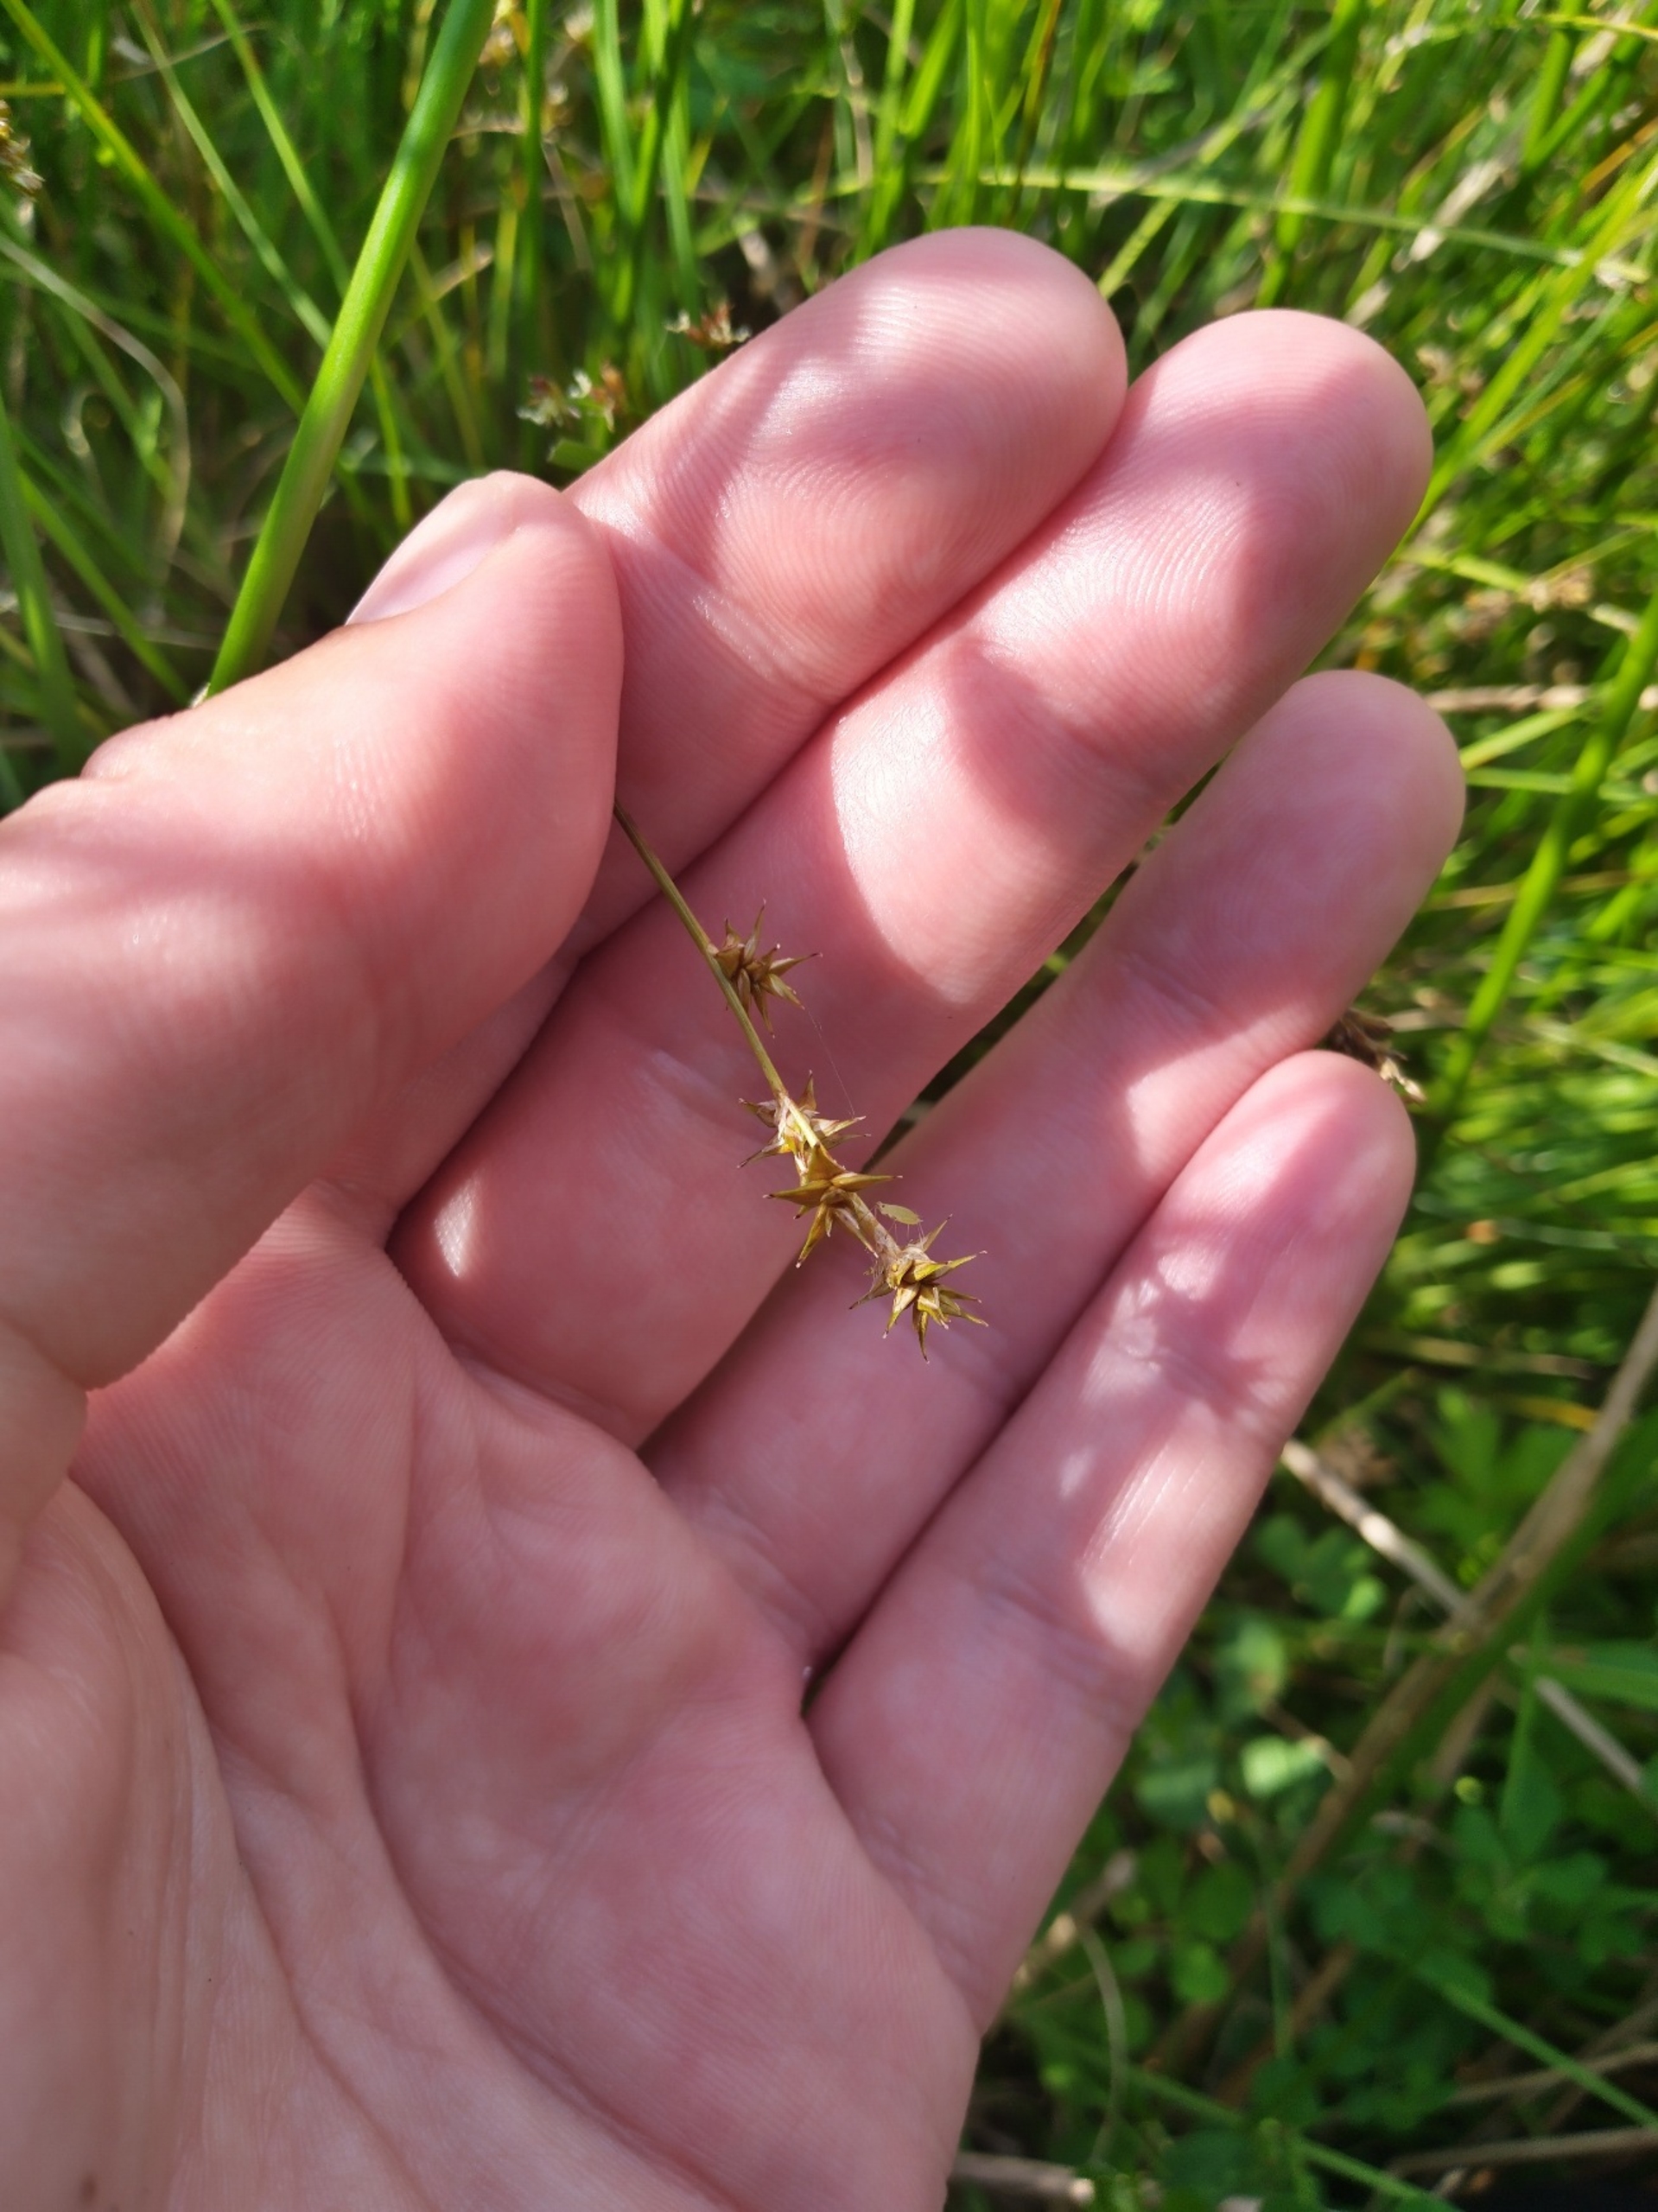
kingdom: Plantae
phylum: Tracheophyta
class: Liliopsida
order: Poales
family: Cyperaceae
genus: Carex
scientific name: Carex echinata
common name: Stjerne-star
